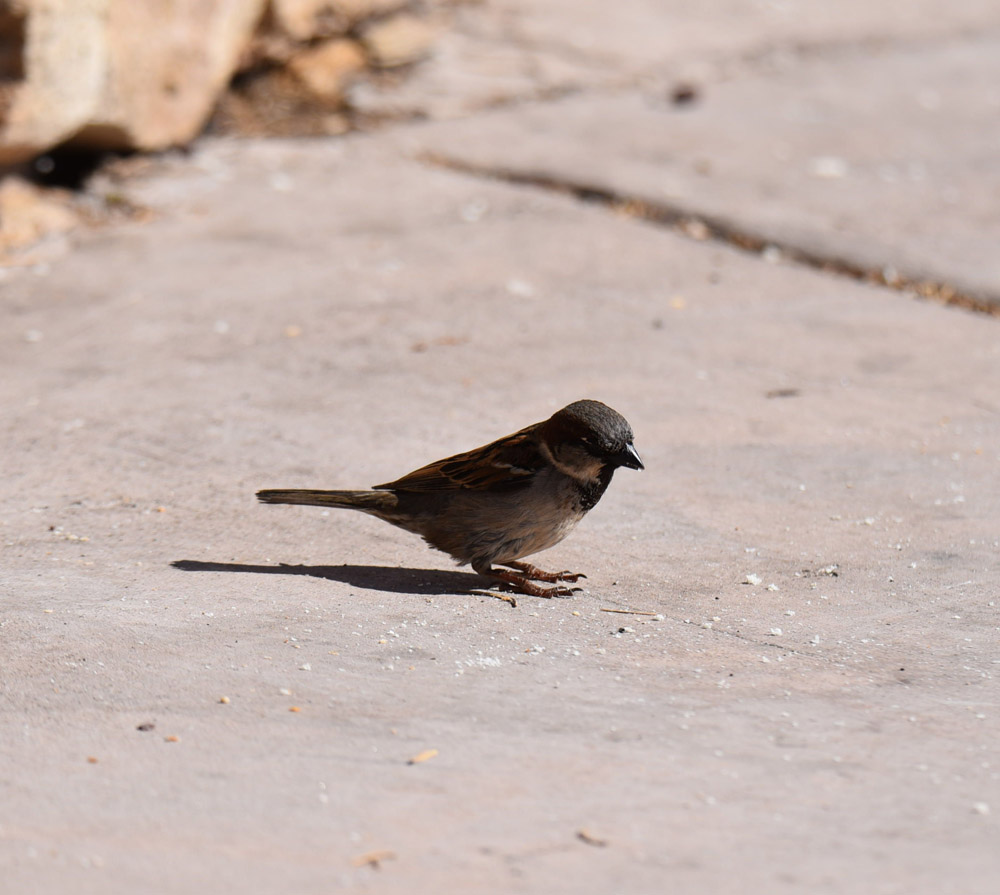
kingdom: Animalia
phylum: Chordata
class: Aves
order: Passeriformes
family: Passeridae
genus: Passer
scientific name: Passer domesticus
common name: House sparrow
